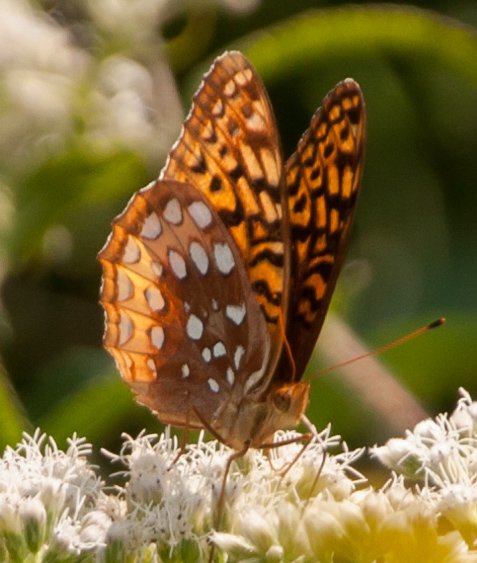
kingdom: Animalia
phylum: Arthropoda
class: Insecta
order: Lepidoptera
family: Nymphalidae
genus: Speyeria
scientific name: Speyeria cybele
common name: Great Spangled Fritillary
